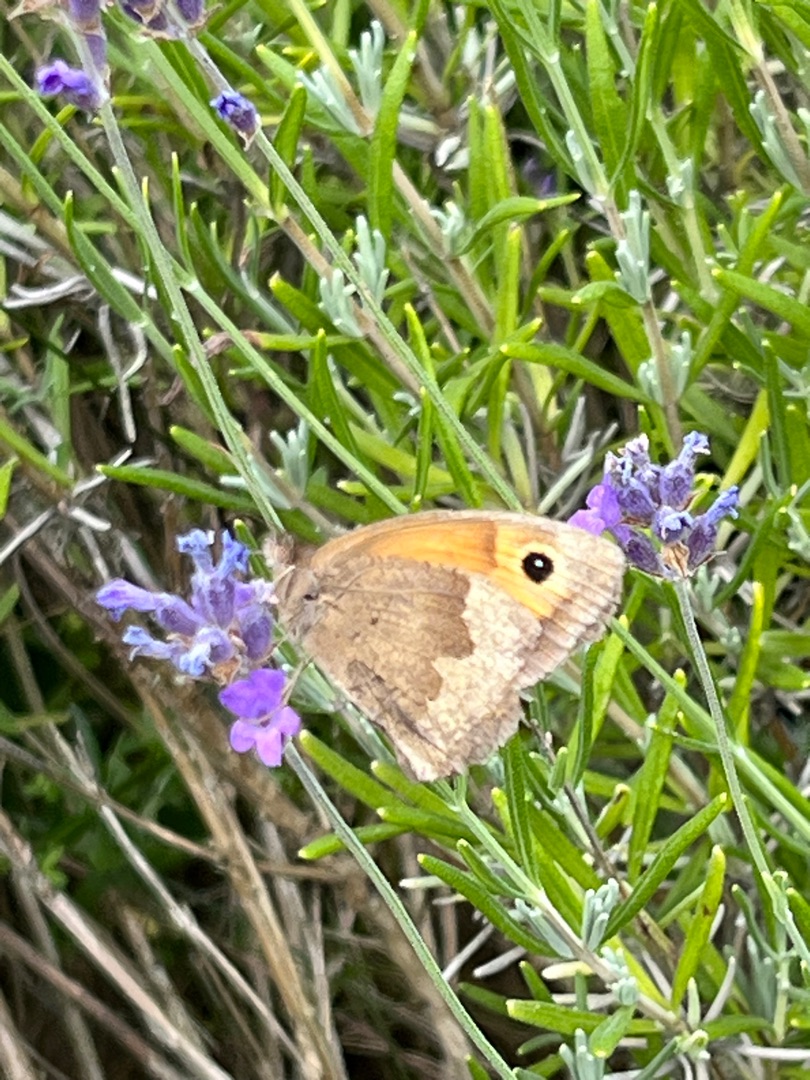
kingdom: Animalia
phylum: Arthropoda
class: Insecta
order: Lepidoptera
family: Nymphalidae
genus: Maniola
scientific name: Maniola jurtina
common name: Græsrandøje
